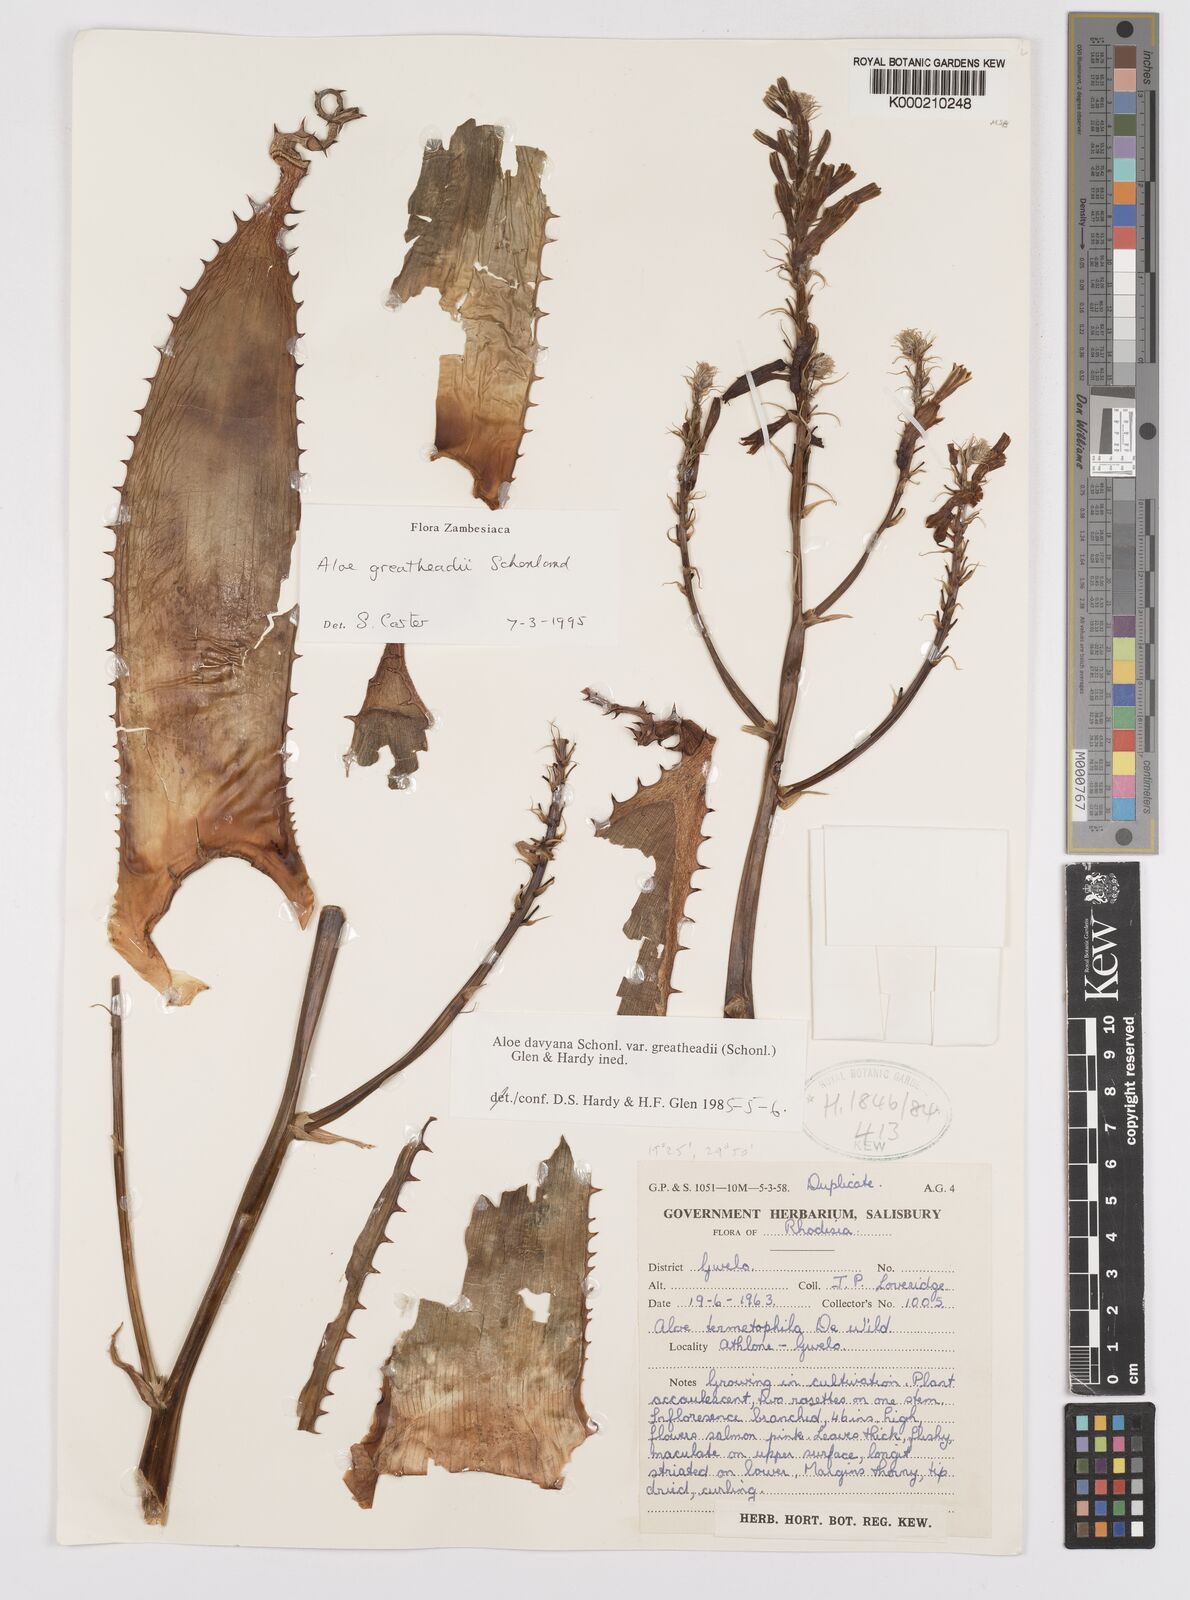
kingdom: Plantae
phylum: Tracheophyta
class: Liliopsida
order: Asparagales
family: Asphodelaceae
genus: Aloe
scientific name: Aloe greatheadii
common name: Greathead's aloe
